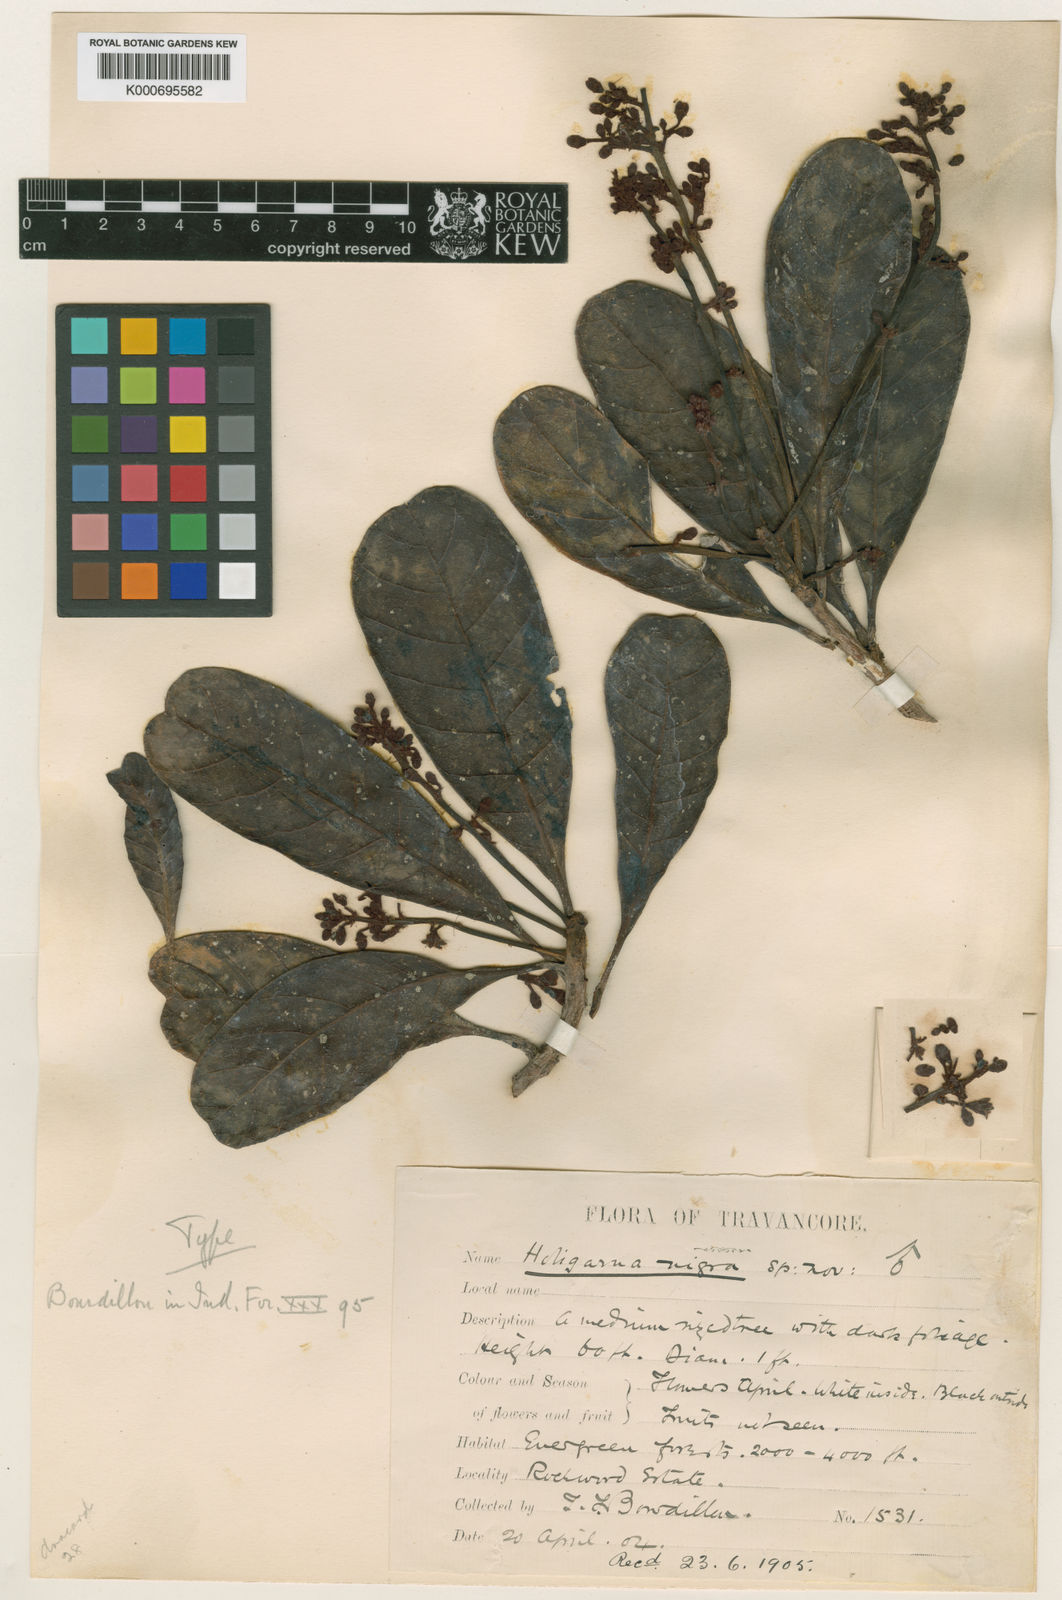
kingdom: Plantae
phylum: Tracheophyta
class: Magnoliopsida
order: Sapindales
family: Anacardiaceae
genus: Holigarna
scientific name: Holigarna nigra
